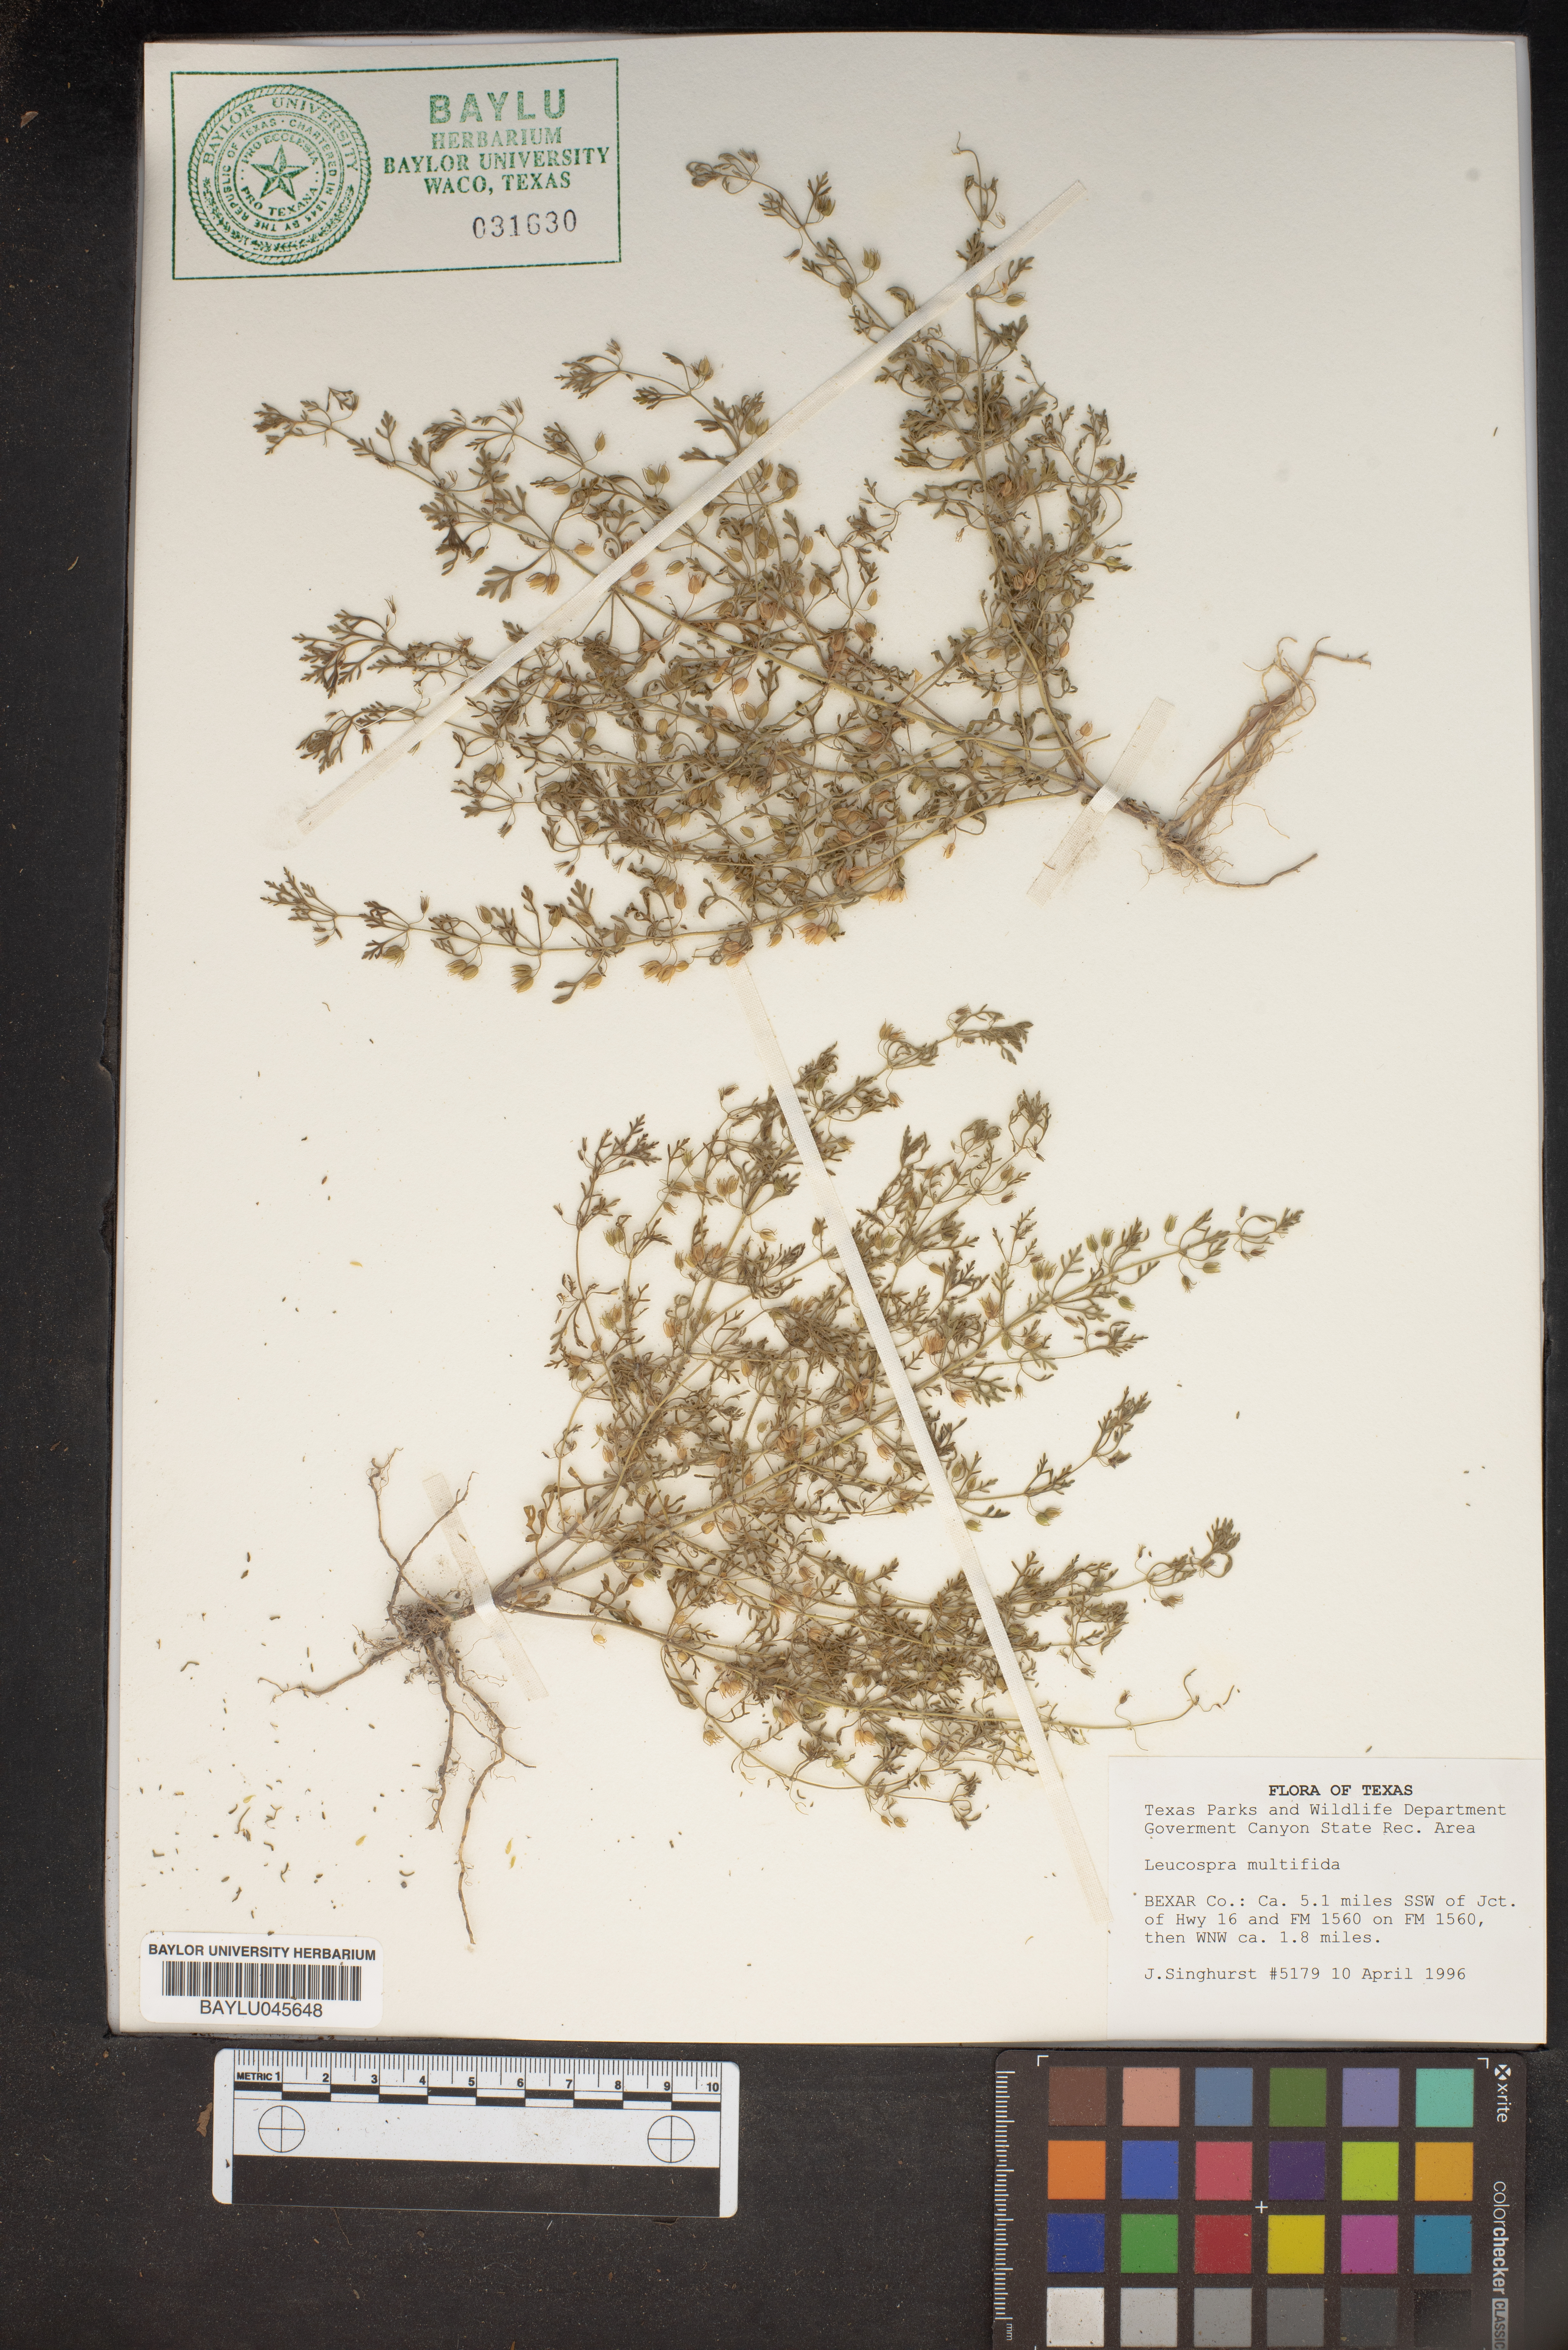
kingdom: Plantae
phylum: Tracheophyta
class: Magnoliopsida
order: Lamiales
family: Plantaginaceae
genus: Leucospora
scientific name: Leucospora multifida
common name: Narrow-leaf paleseed
